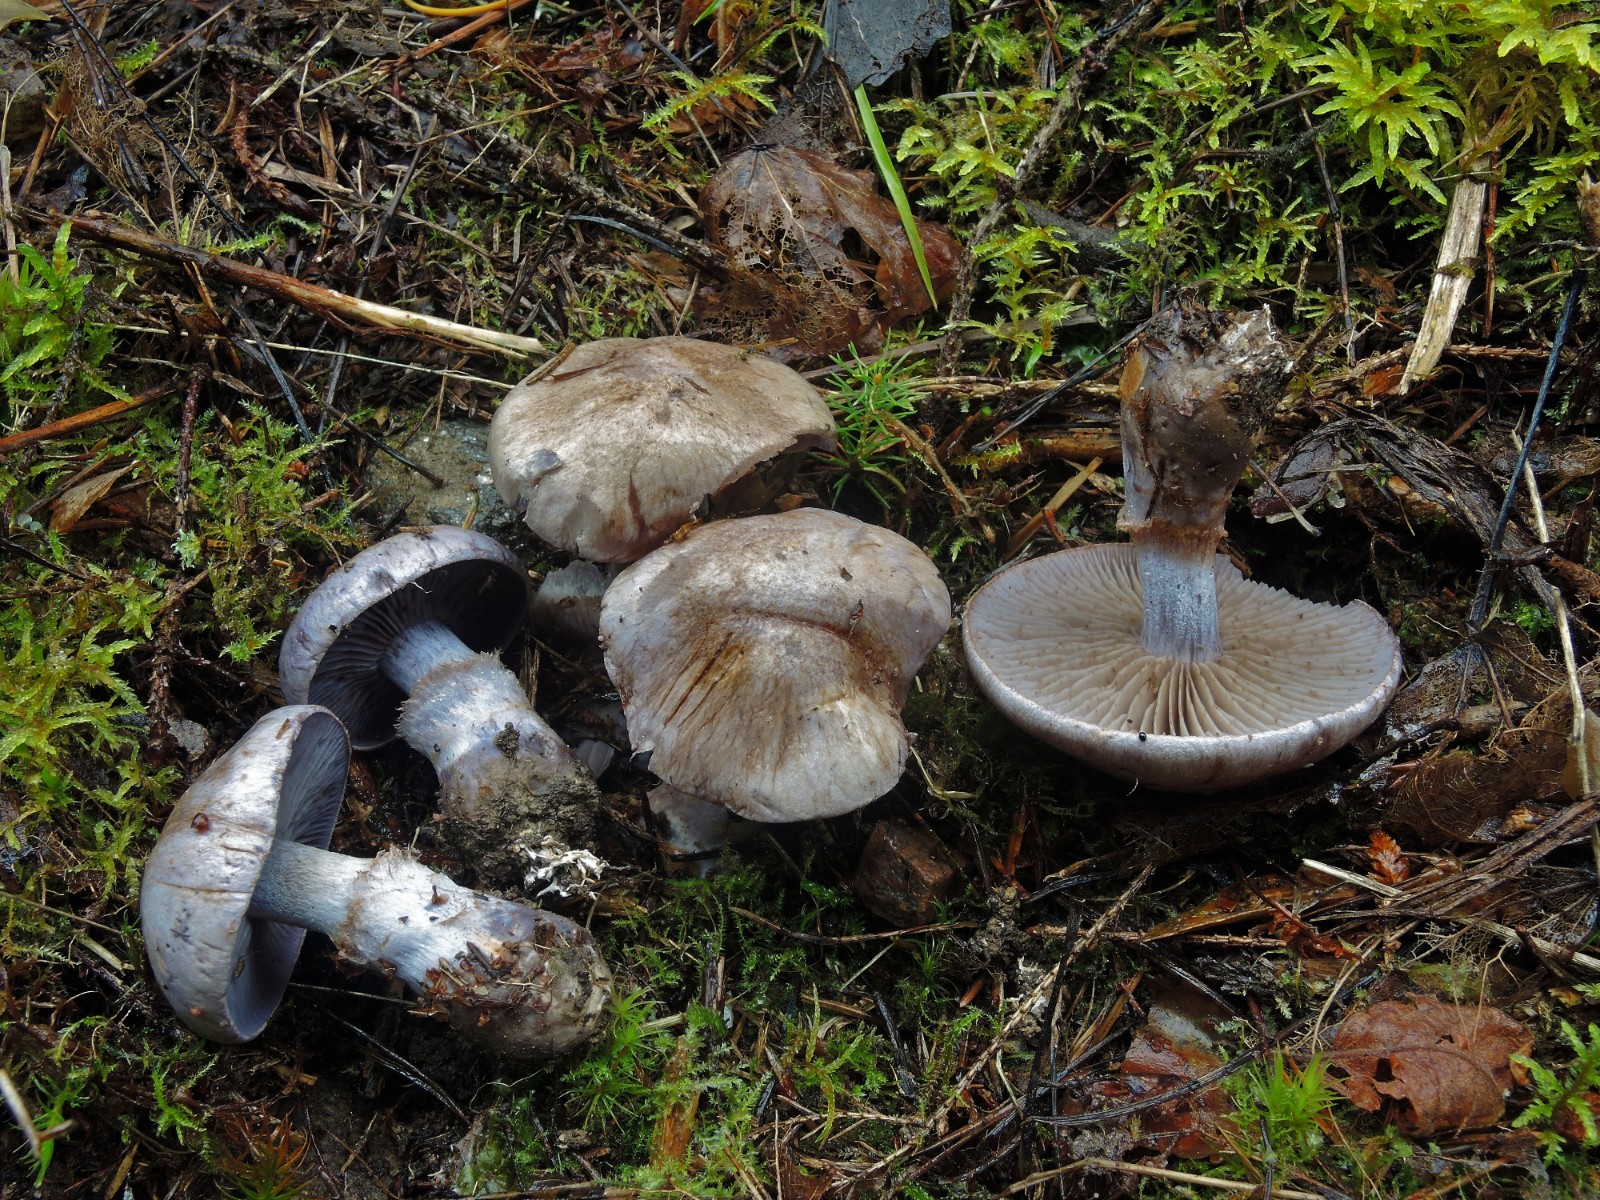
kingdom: Fungi
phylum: Basidiomycota
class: Agaricomycetes
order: Agaricales
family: Cortinariaceae
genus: Cortinarius
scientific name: Cortinarius cyanites
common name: mørkeblå slørhat
